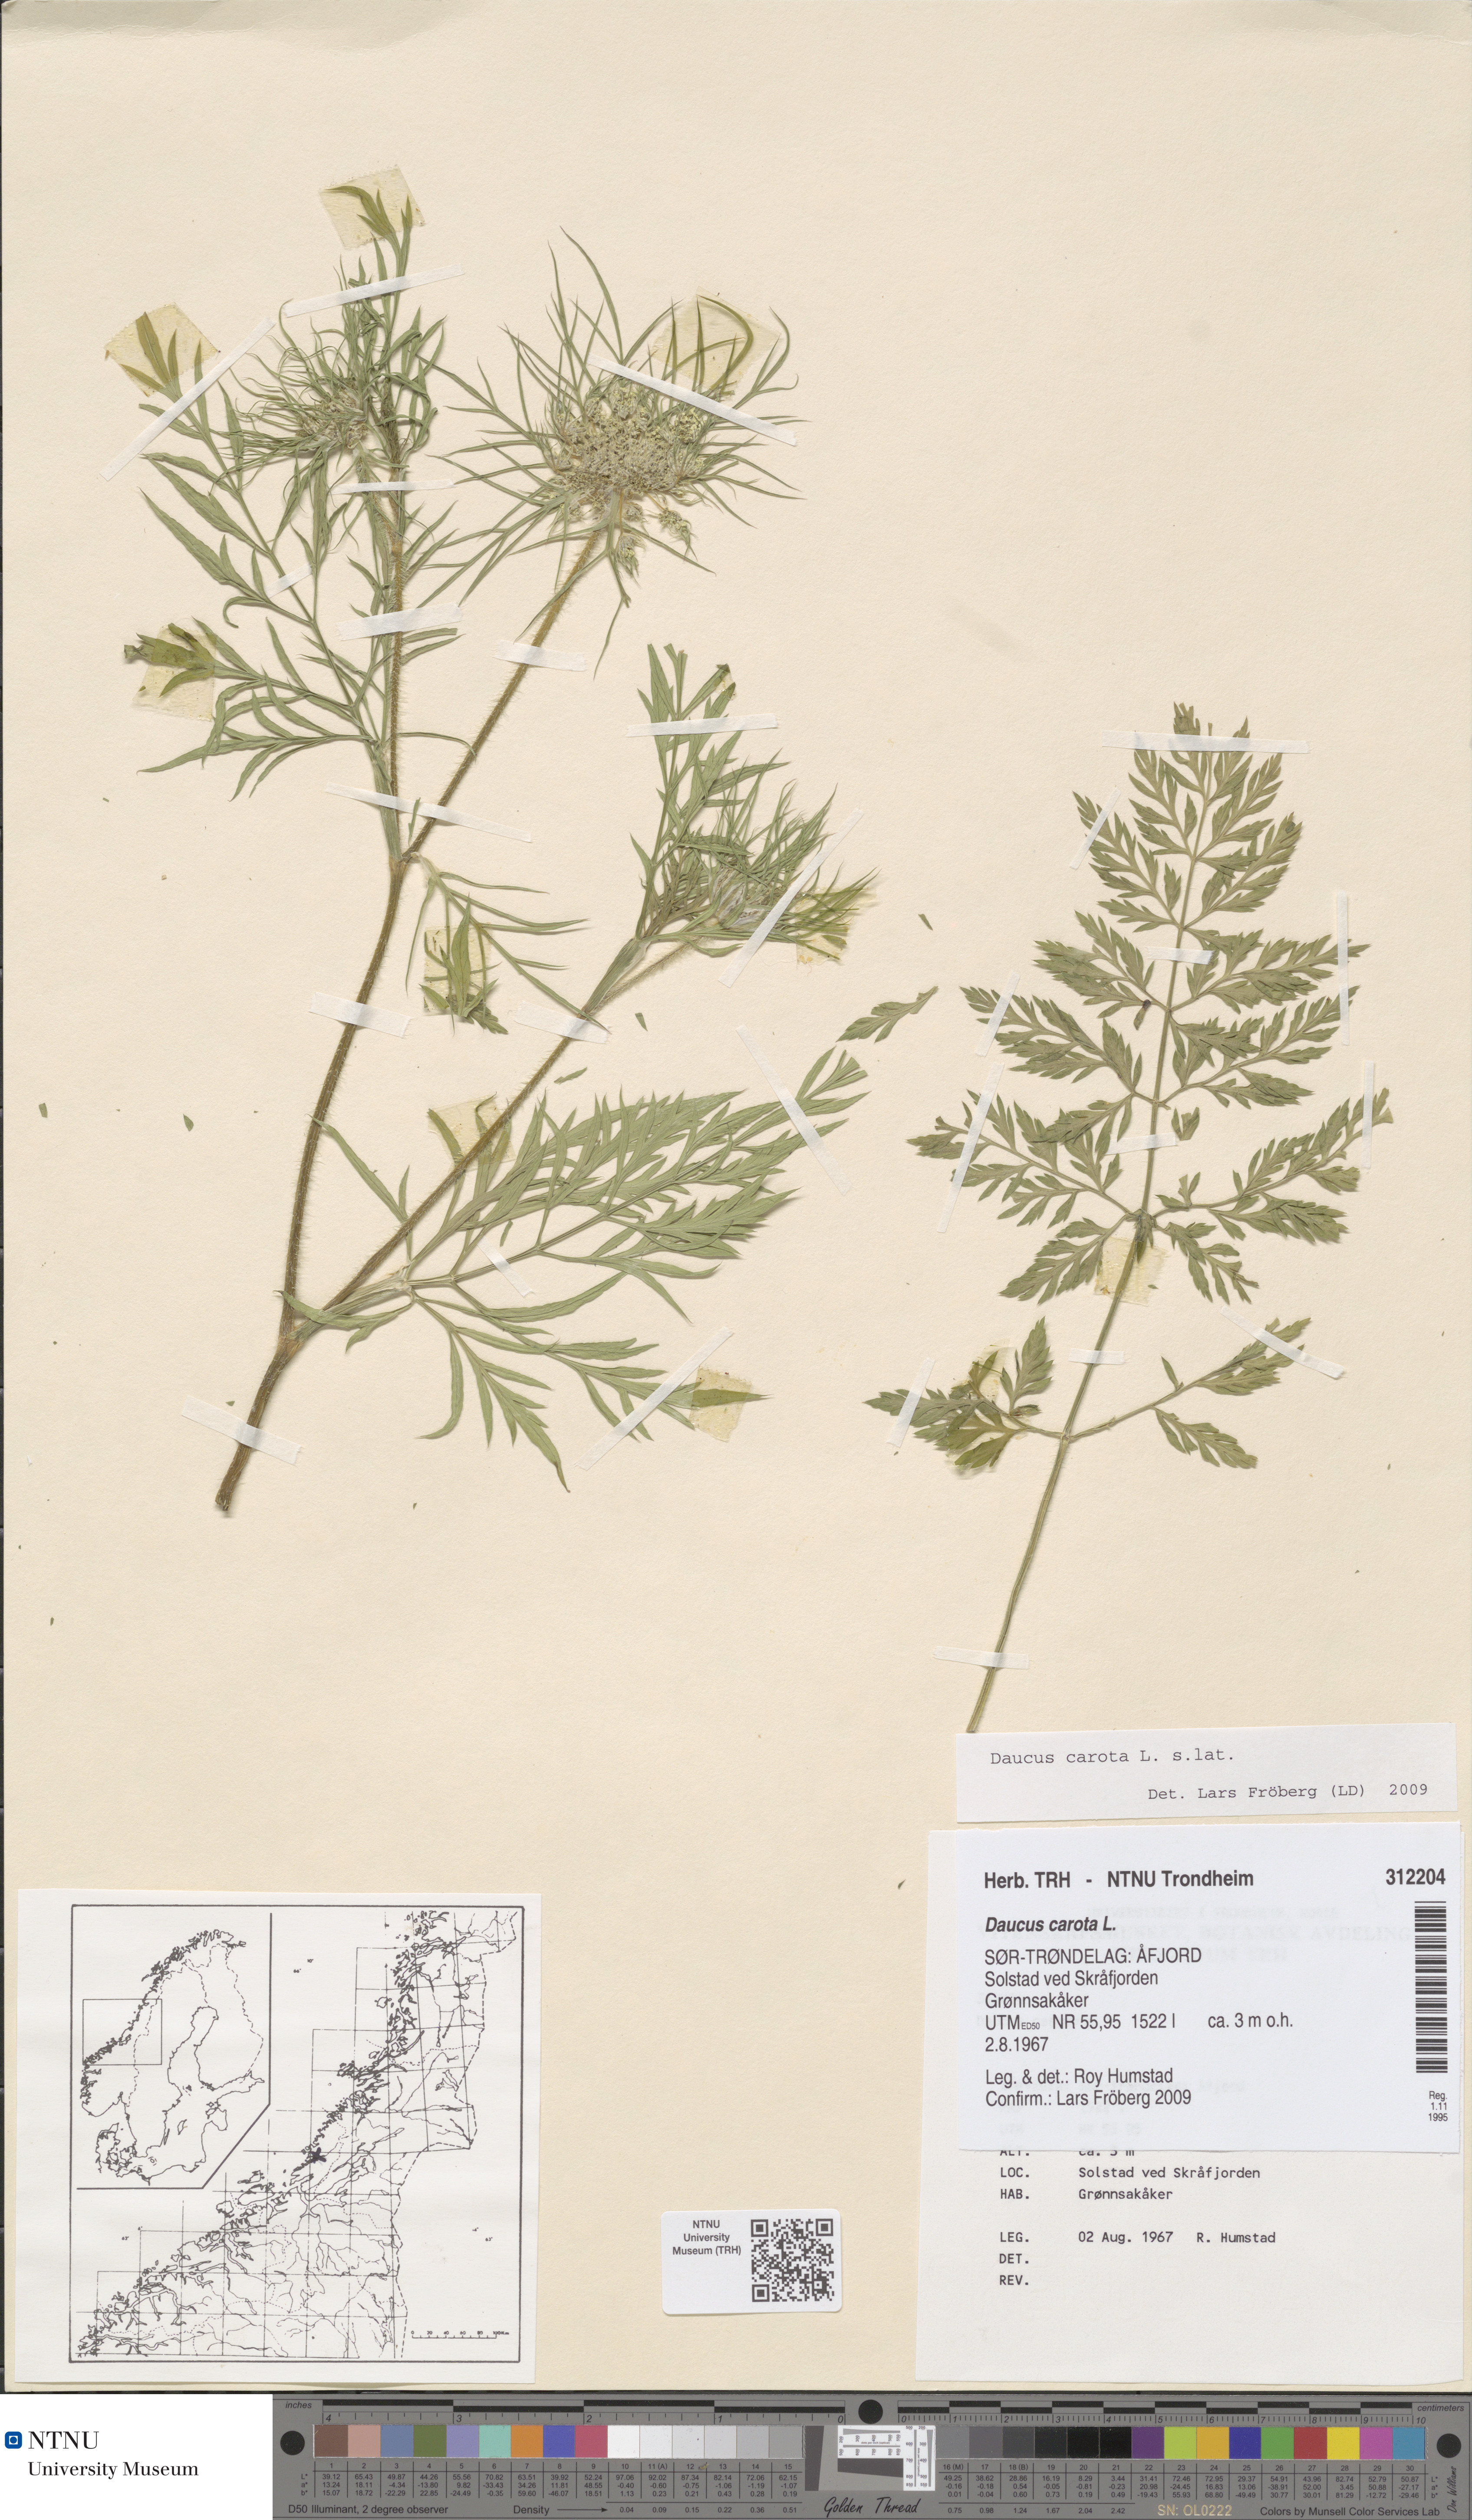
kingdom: Plantae
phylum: Tracheophyta
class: Magnoliopsida
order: Apiales
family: Apiaceae
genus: Daucus
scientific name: Daucus carota
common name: Wild carrot
